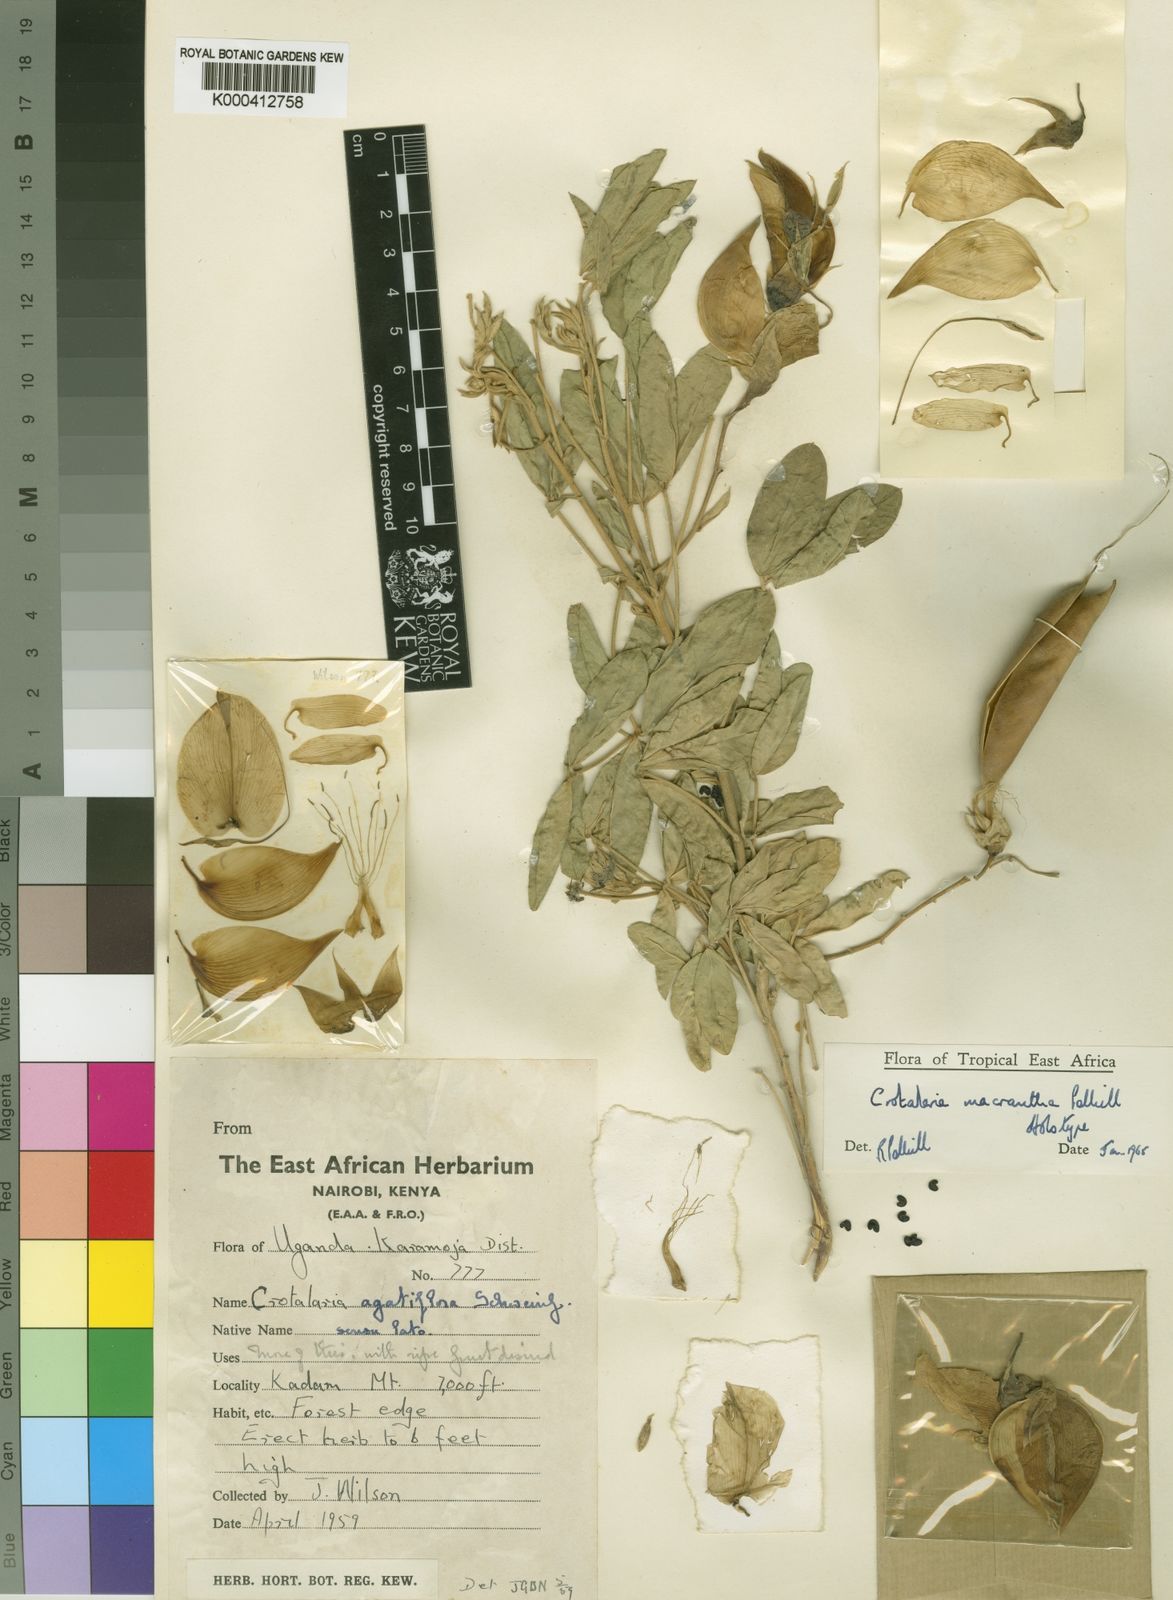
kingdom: Plantae
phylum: Tracheophyta
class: Magnoliopsida
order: Fabales
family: Fabaceae
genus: Crotalaria
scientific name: Crotalaria macrantha
